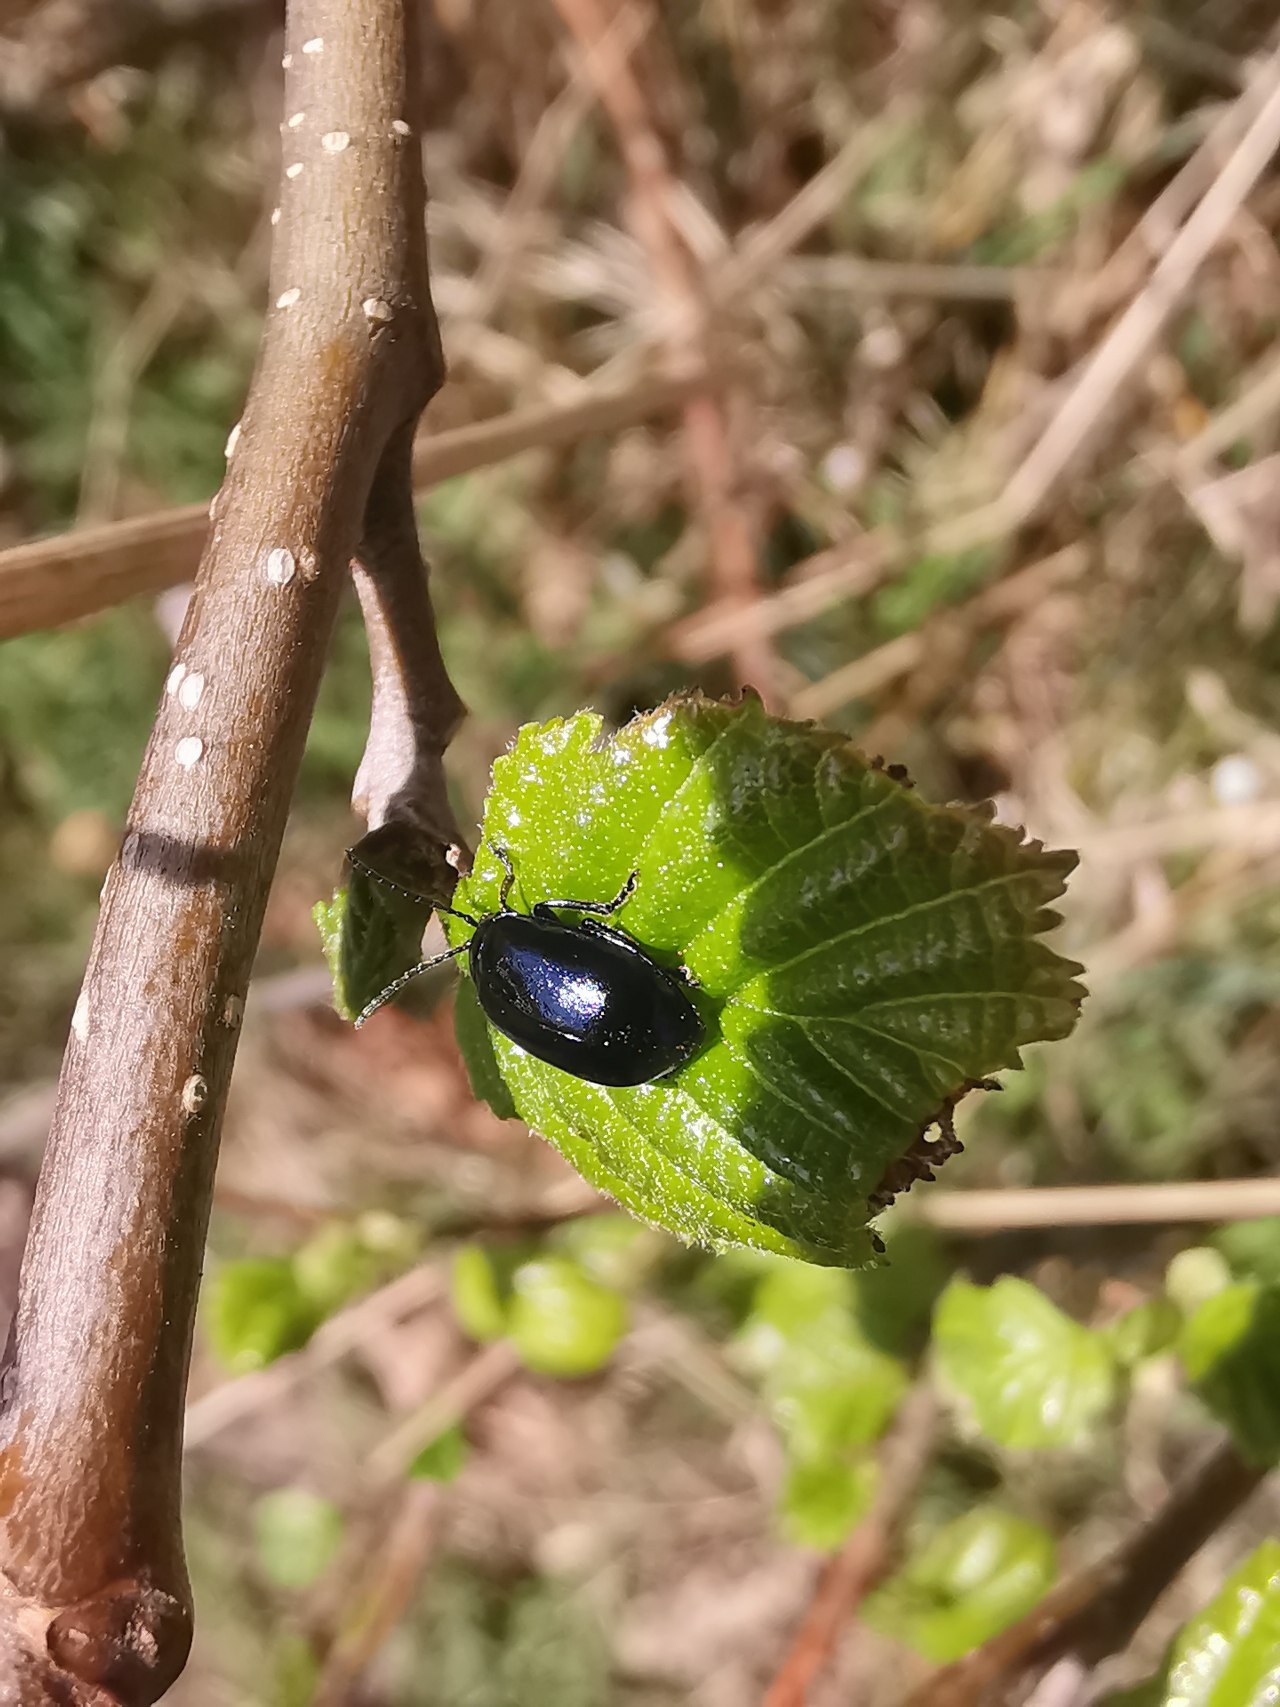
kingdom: Animalia
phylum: Arthropoda
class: Insecta
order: Coleoptera
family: Chrysomelidae
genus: Agelastica
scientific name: Agelastica alni
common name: Ellebladbille
